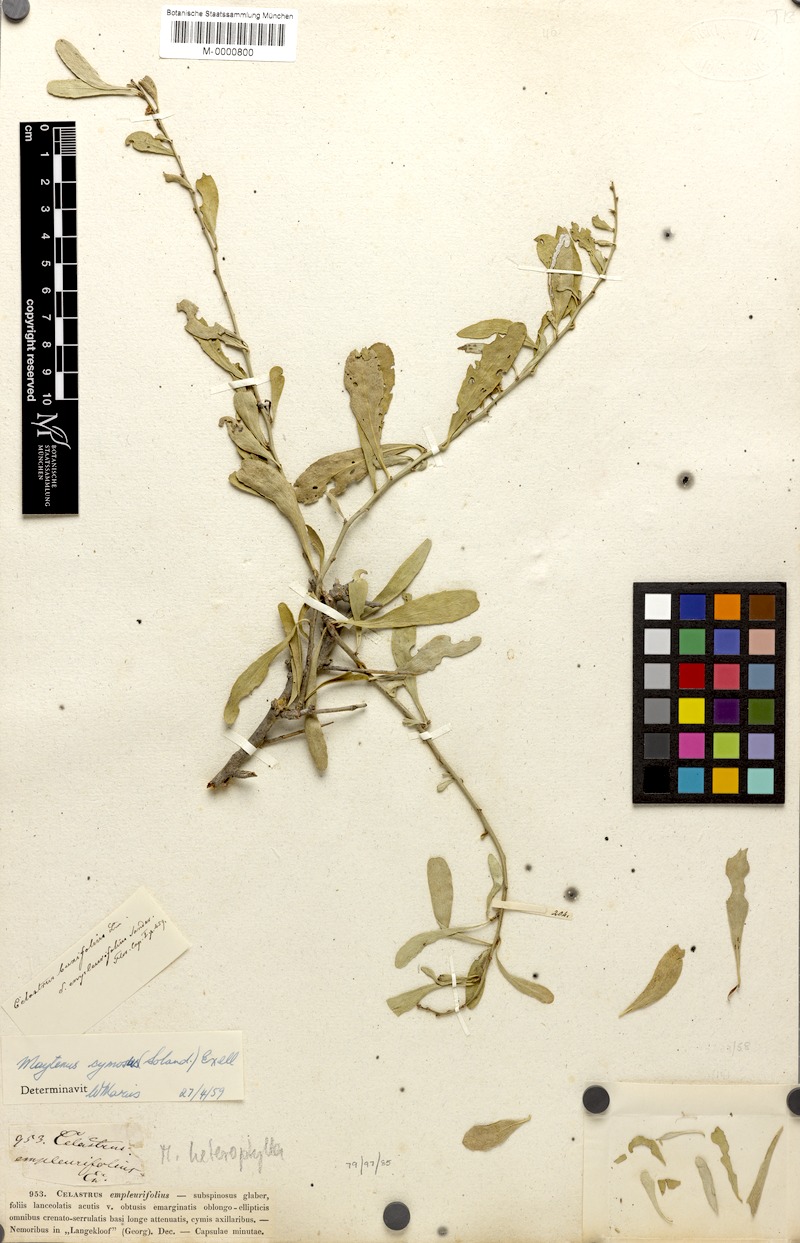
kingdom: Plantae
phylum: Tracheophyta
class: Magnoliopsida
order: Celastrales
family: Celastraceae
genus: Gymnosporia
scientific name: Gymnosporia buxifolia
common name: Common spike-thorn
